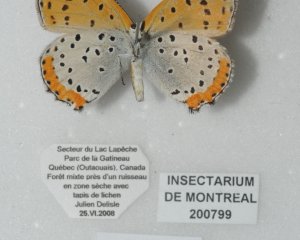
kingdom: Animalia
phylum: Arthropoda
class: Insecta
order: Lepidoptera
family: Sesiidae
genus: Sesia
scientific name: Sesia Lycaena hyllus
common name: Bronze Copper
